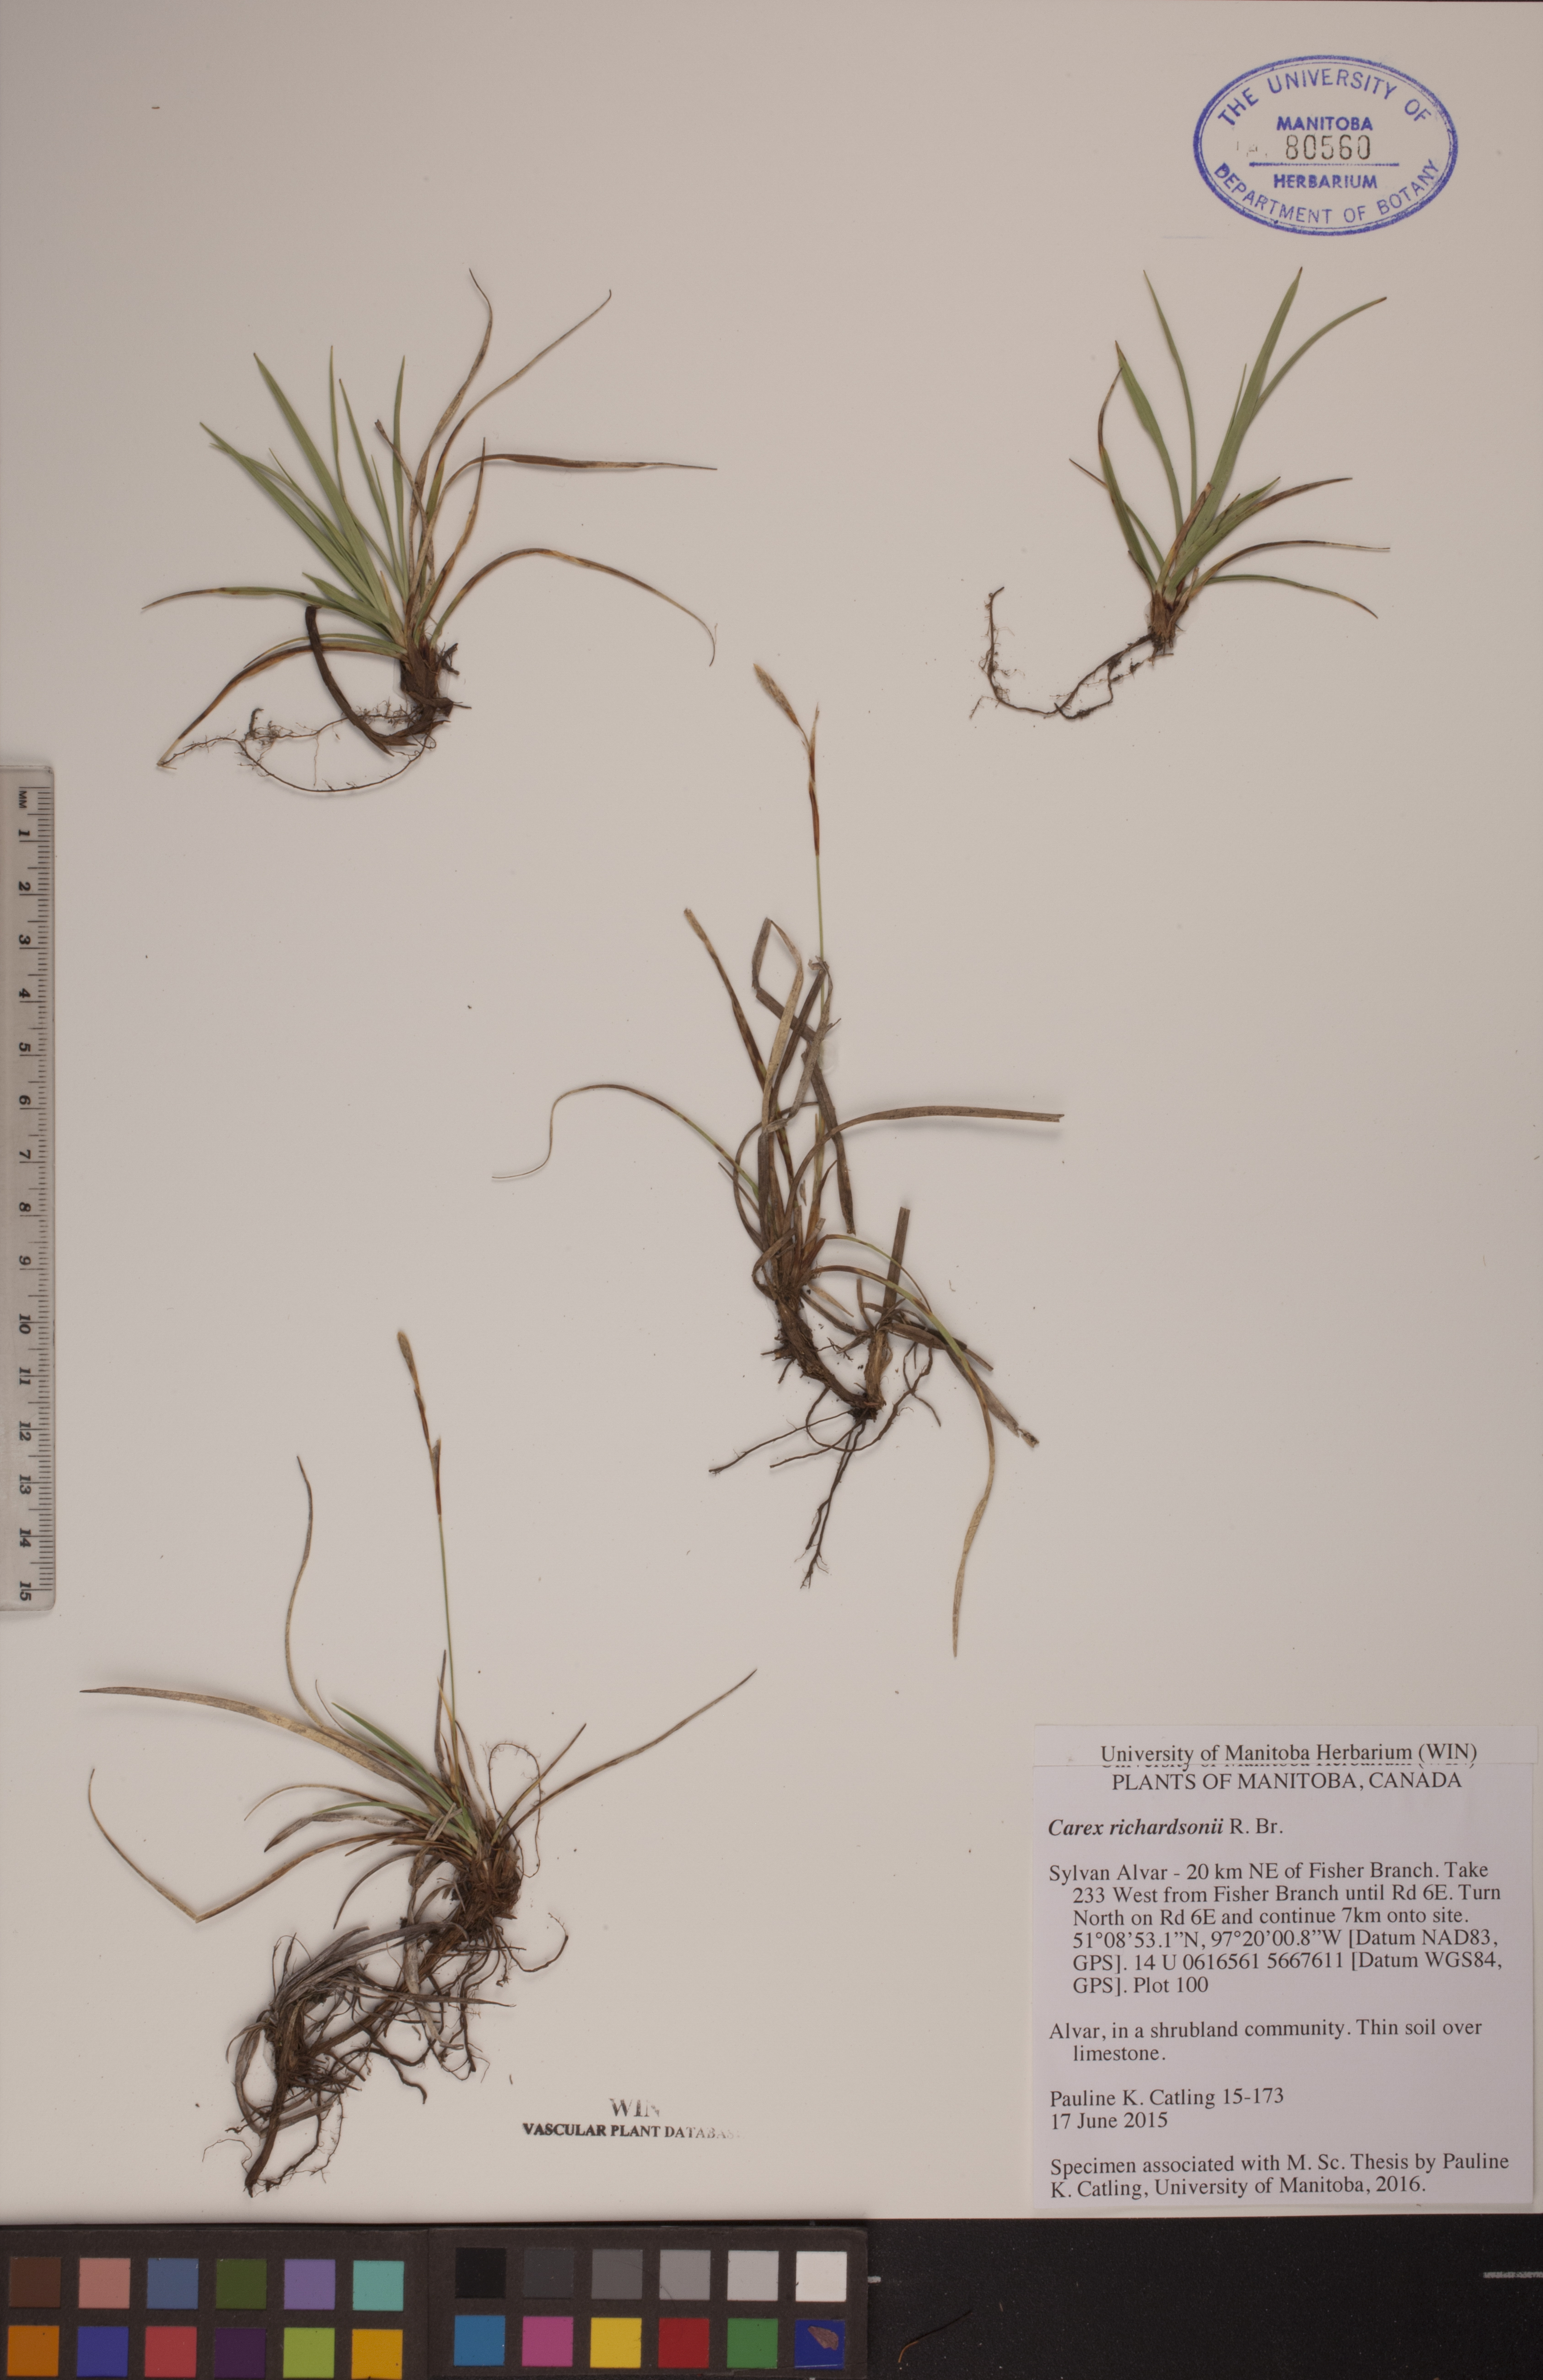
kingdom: Plantae
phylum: Tracheophyta
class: Liliopsida
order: Poales
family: Cyperaceae
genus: Carex
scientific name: Carex richardsonii
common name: Prairie hummock sedge
